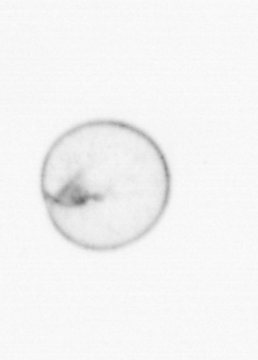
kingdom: Chromista
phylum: Myzozoa
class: Dinophyceae
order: Noctilucales
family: Noctilucaceae
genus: Noctiluca
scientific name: Noctiluca scintillans
